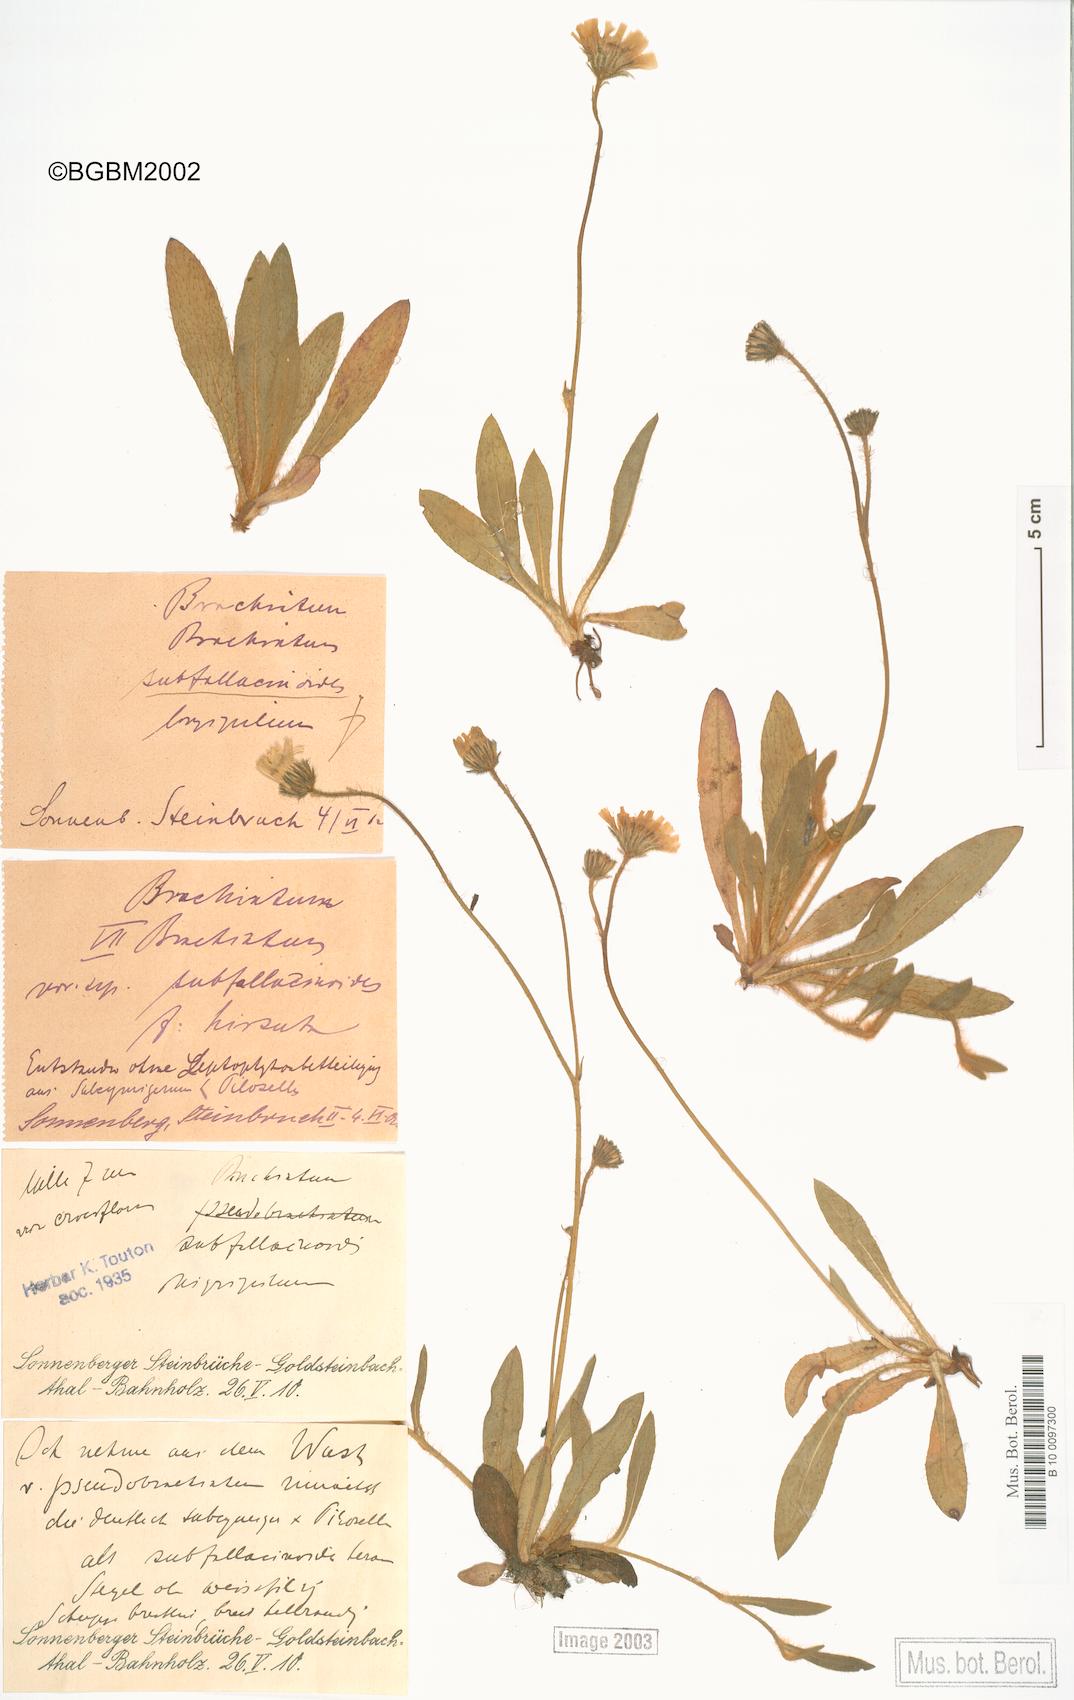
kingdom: Plantae
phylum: Tracheophyta
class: Magnoliopsida
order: Asterales
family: Asteraceae
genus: Pilosella
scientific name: Pilosella acutifolia
